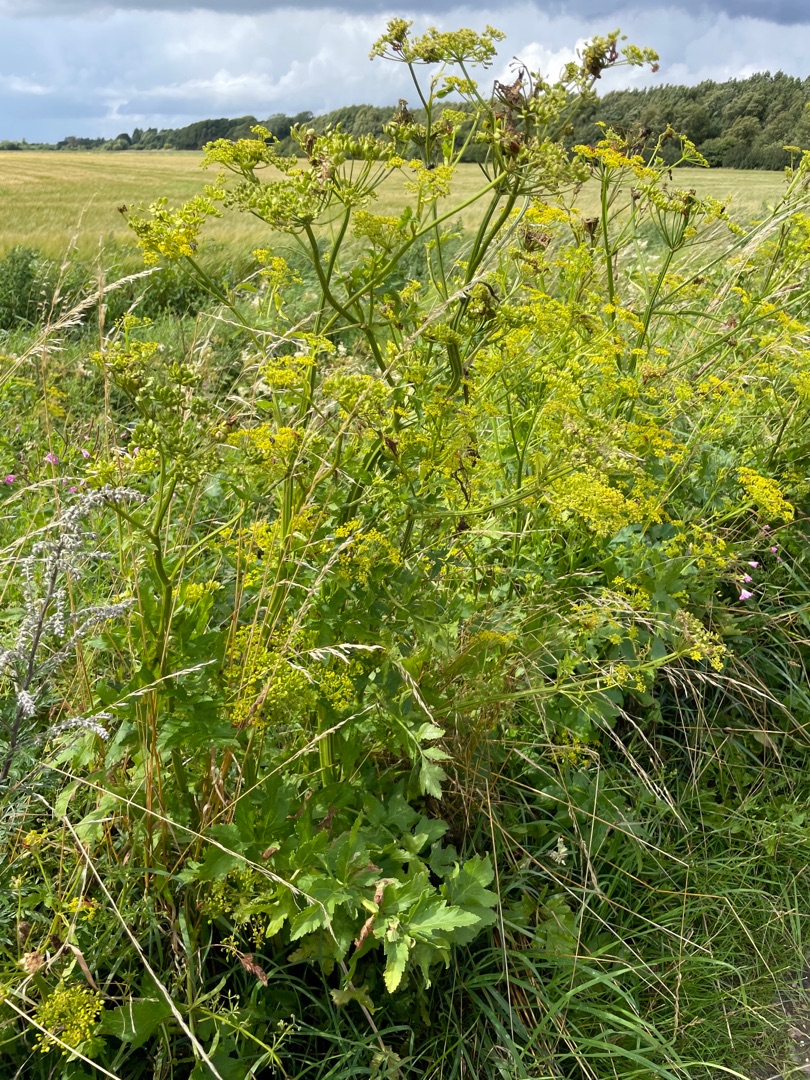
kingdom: Plantae
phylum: Tracheophyta
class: Magnoliopsida
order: Apiales
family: Apiaceae
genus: Pastinaca
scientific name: Pastinaca sativa
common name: Pastinak
